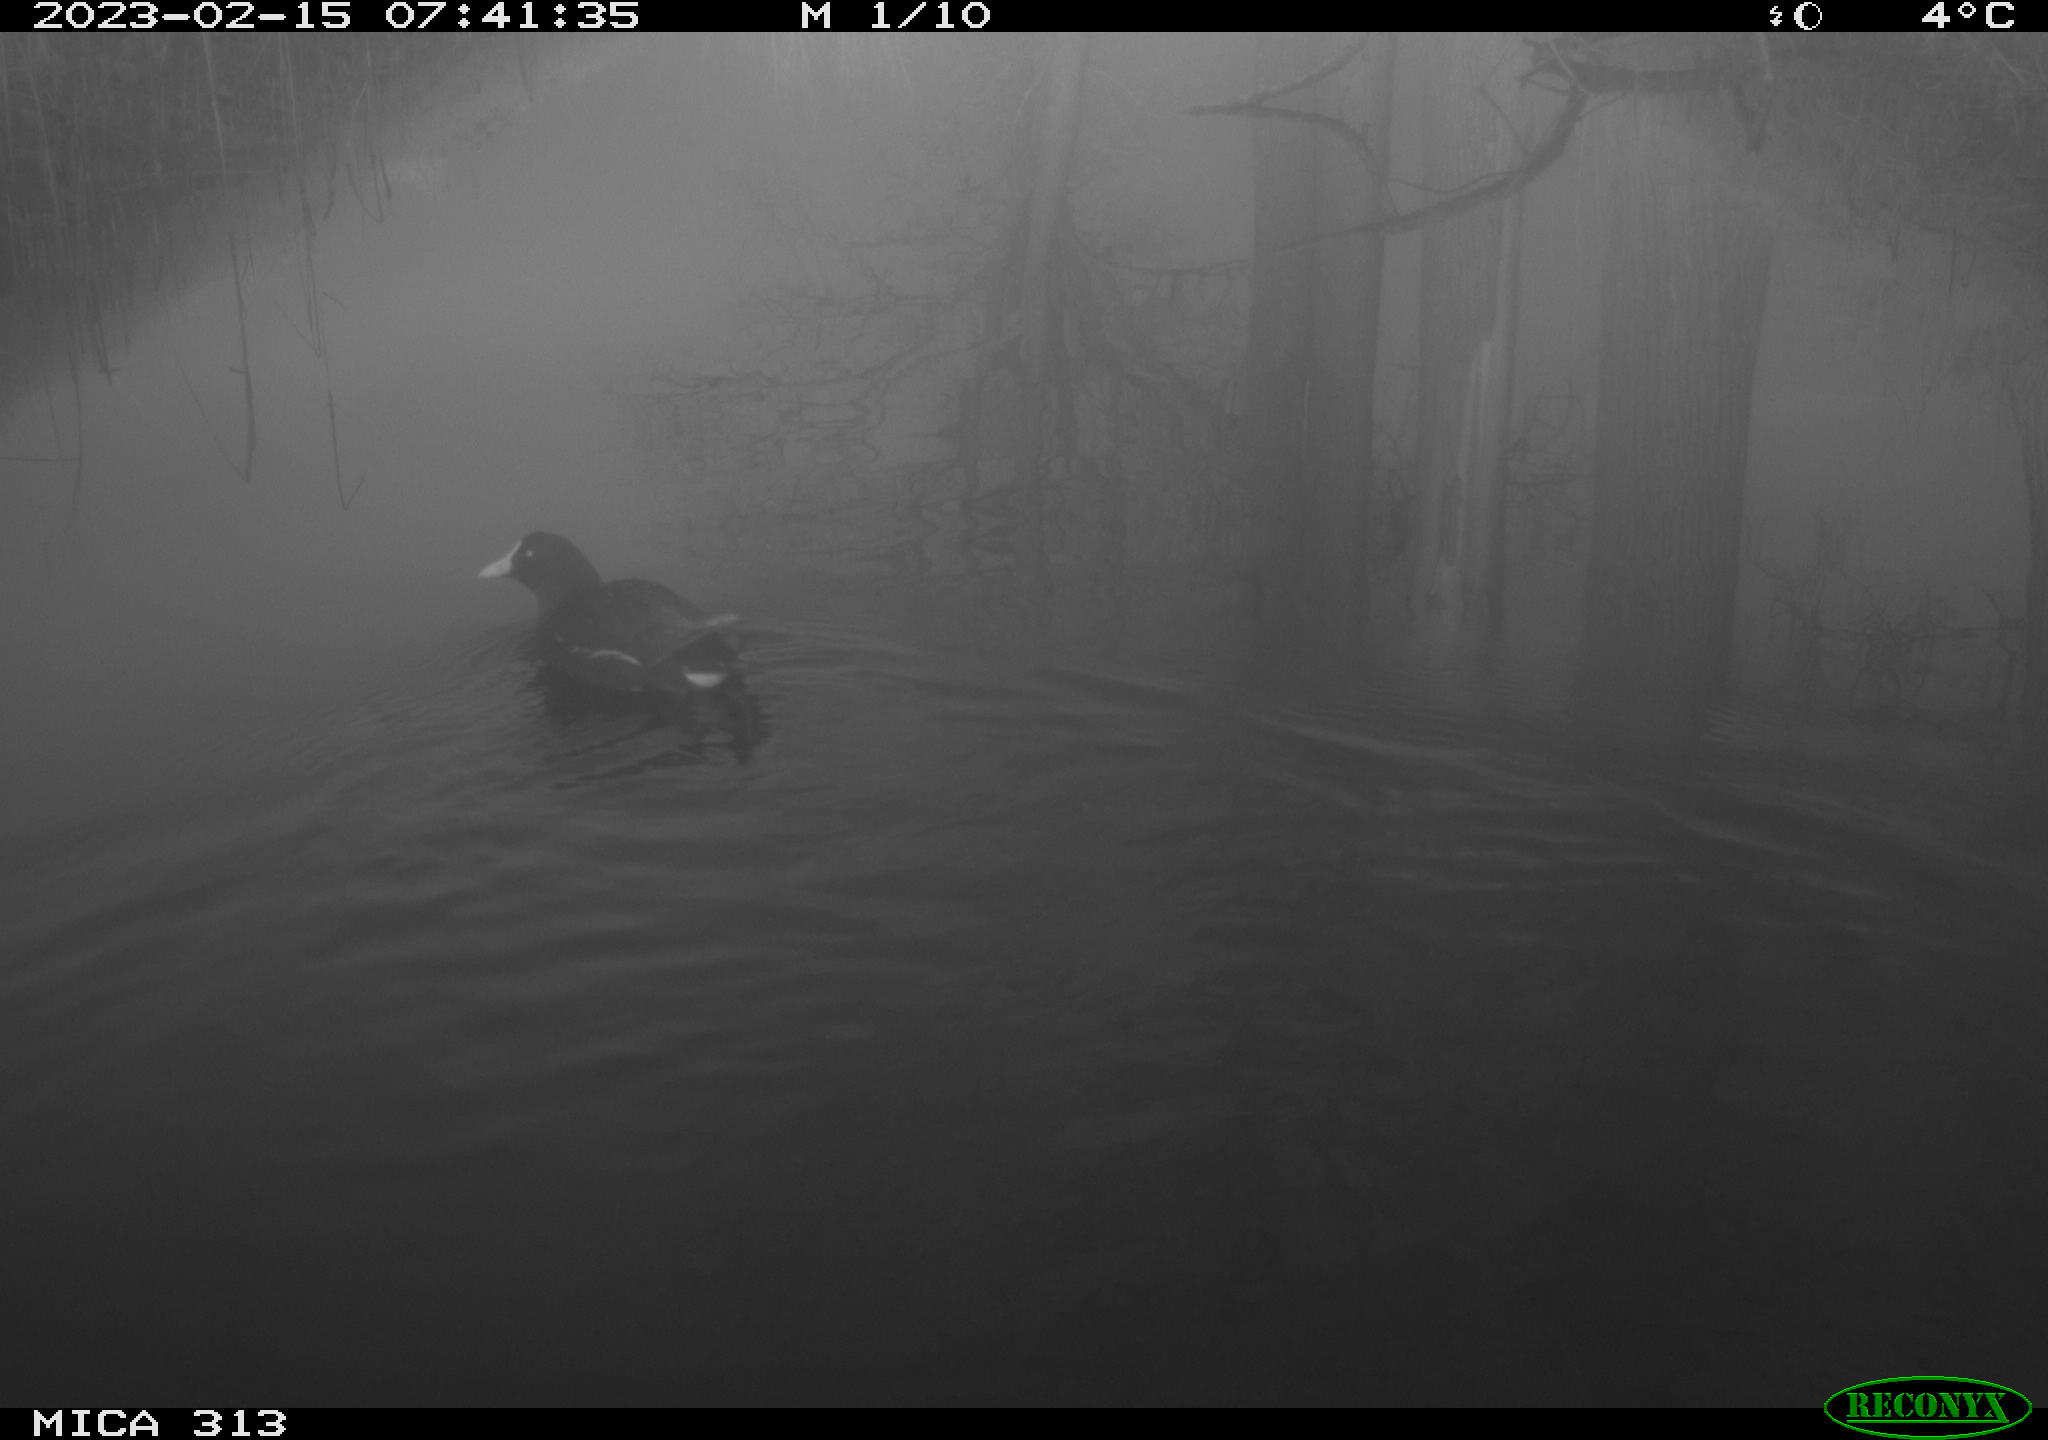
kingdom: Animalia
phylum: Chordata
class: Aves
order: Gruiformes
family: Rallidae
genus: Gallinula
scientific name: Gallinula chloropus
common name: Common moorhen
